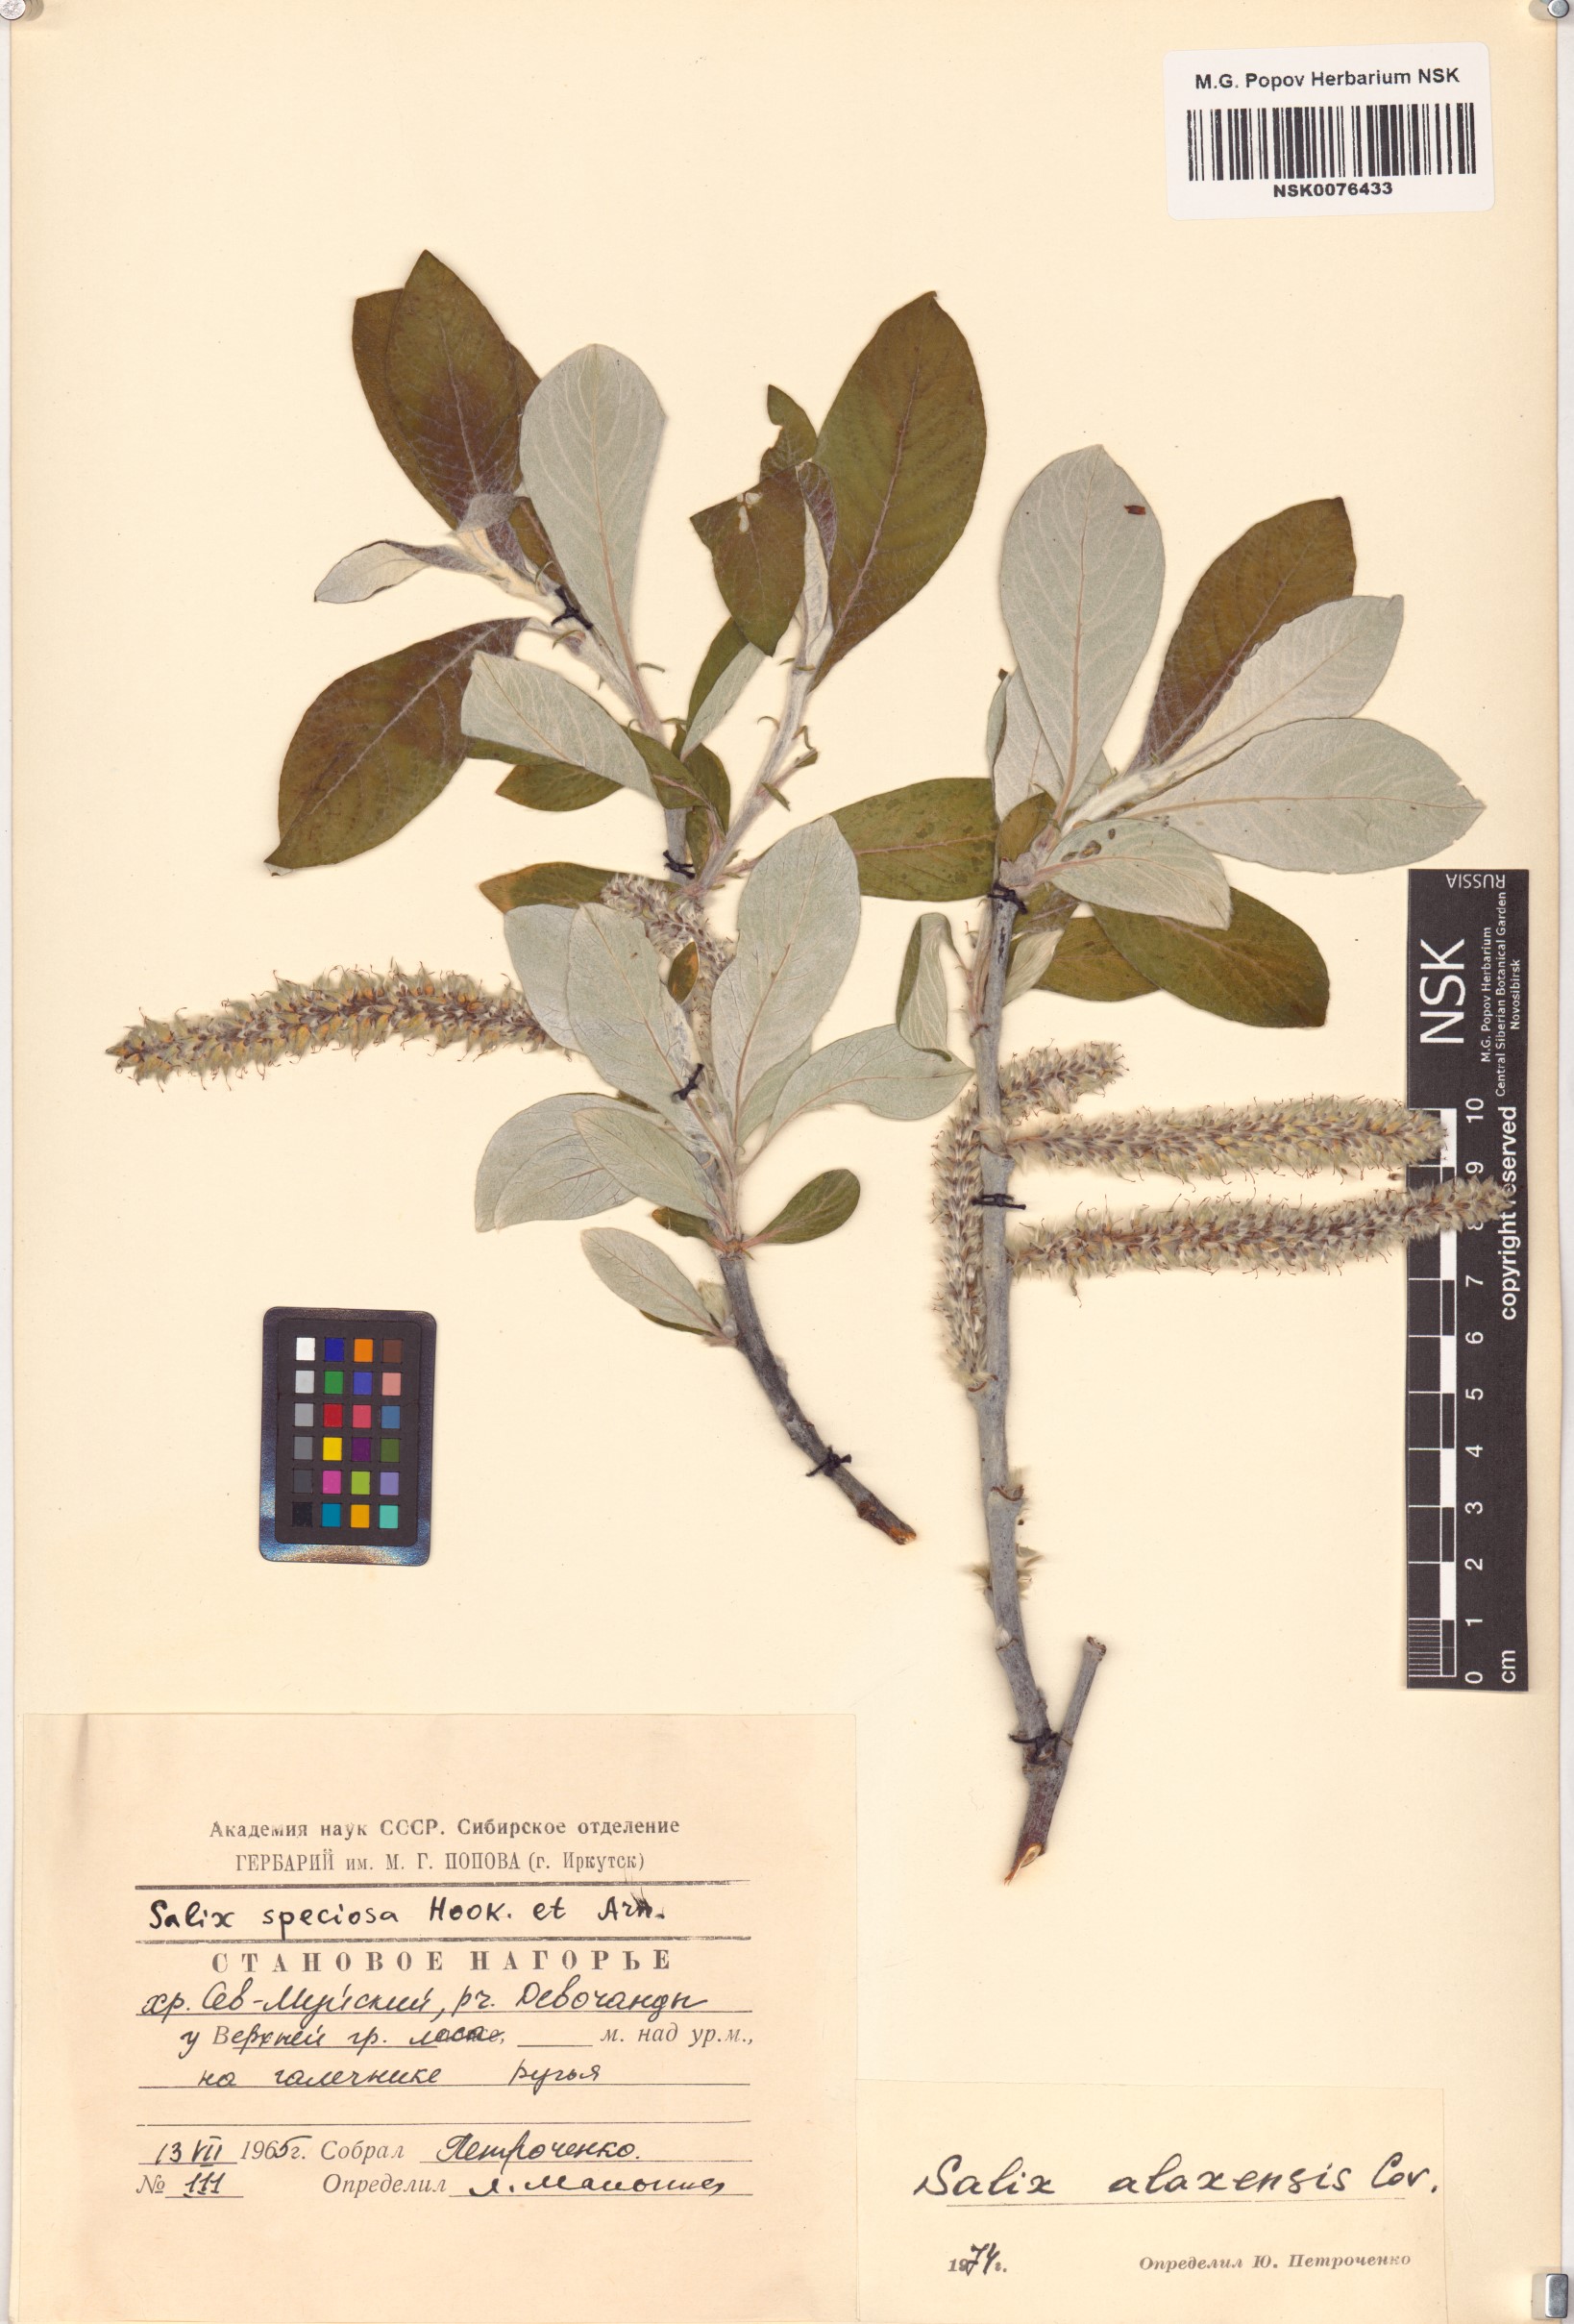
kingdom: Plantae
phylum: Tracheophyta
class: Magnoliopsida
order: Malpighiales
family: Salicaceae
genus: Salix
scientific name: Salix alaxensis
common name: Feltleaf willow
